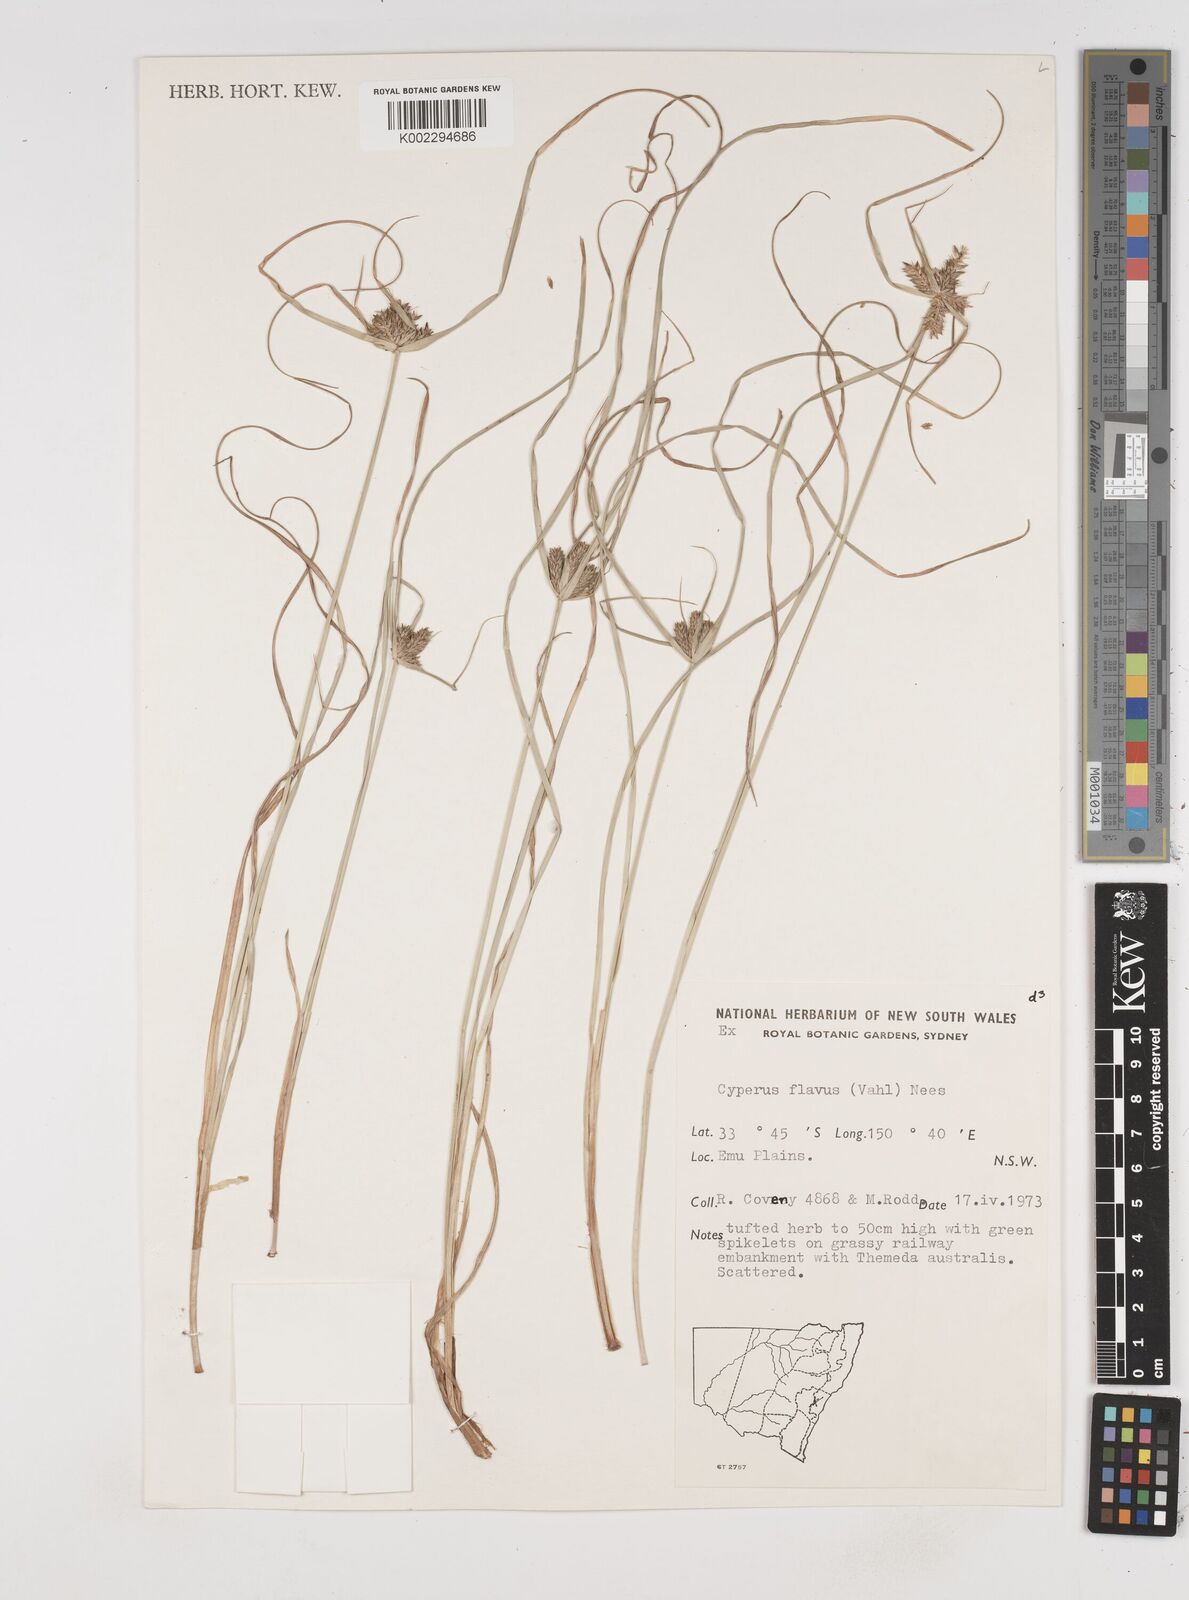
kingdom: Plantae
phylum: Tracheophyta
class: Liliopsida
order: Poales
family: Cyperaceae
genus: Cyperus
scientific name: Cyperus aggregatus
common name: Inflatedscale flatsedge
